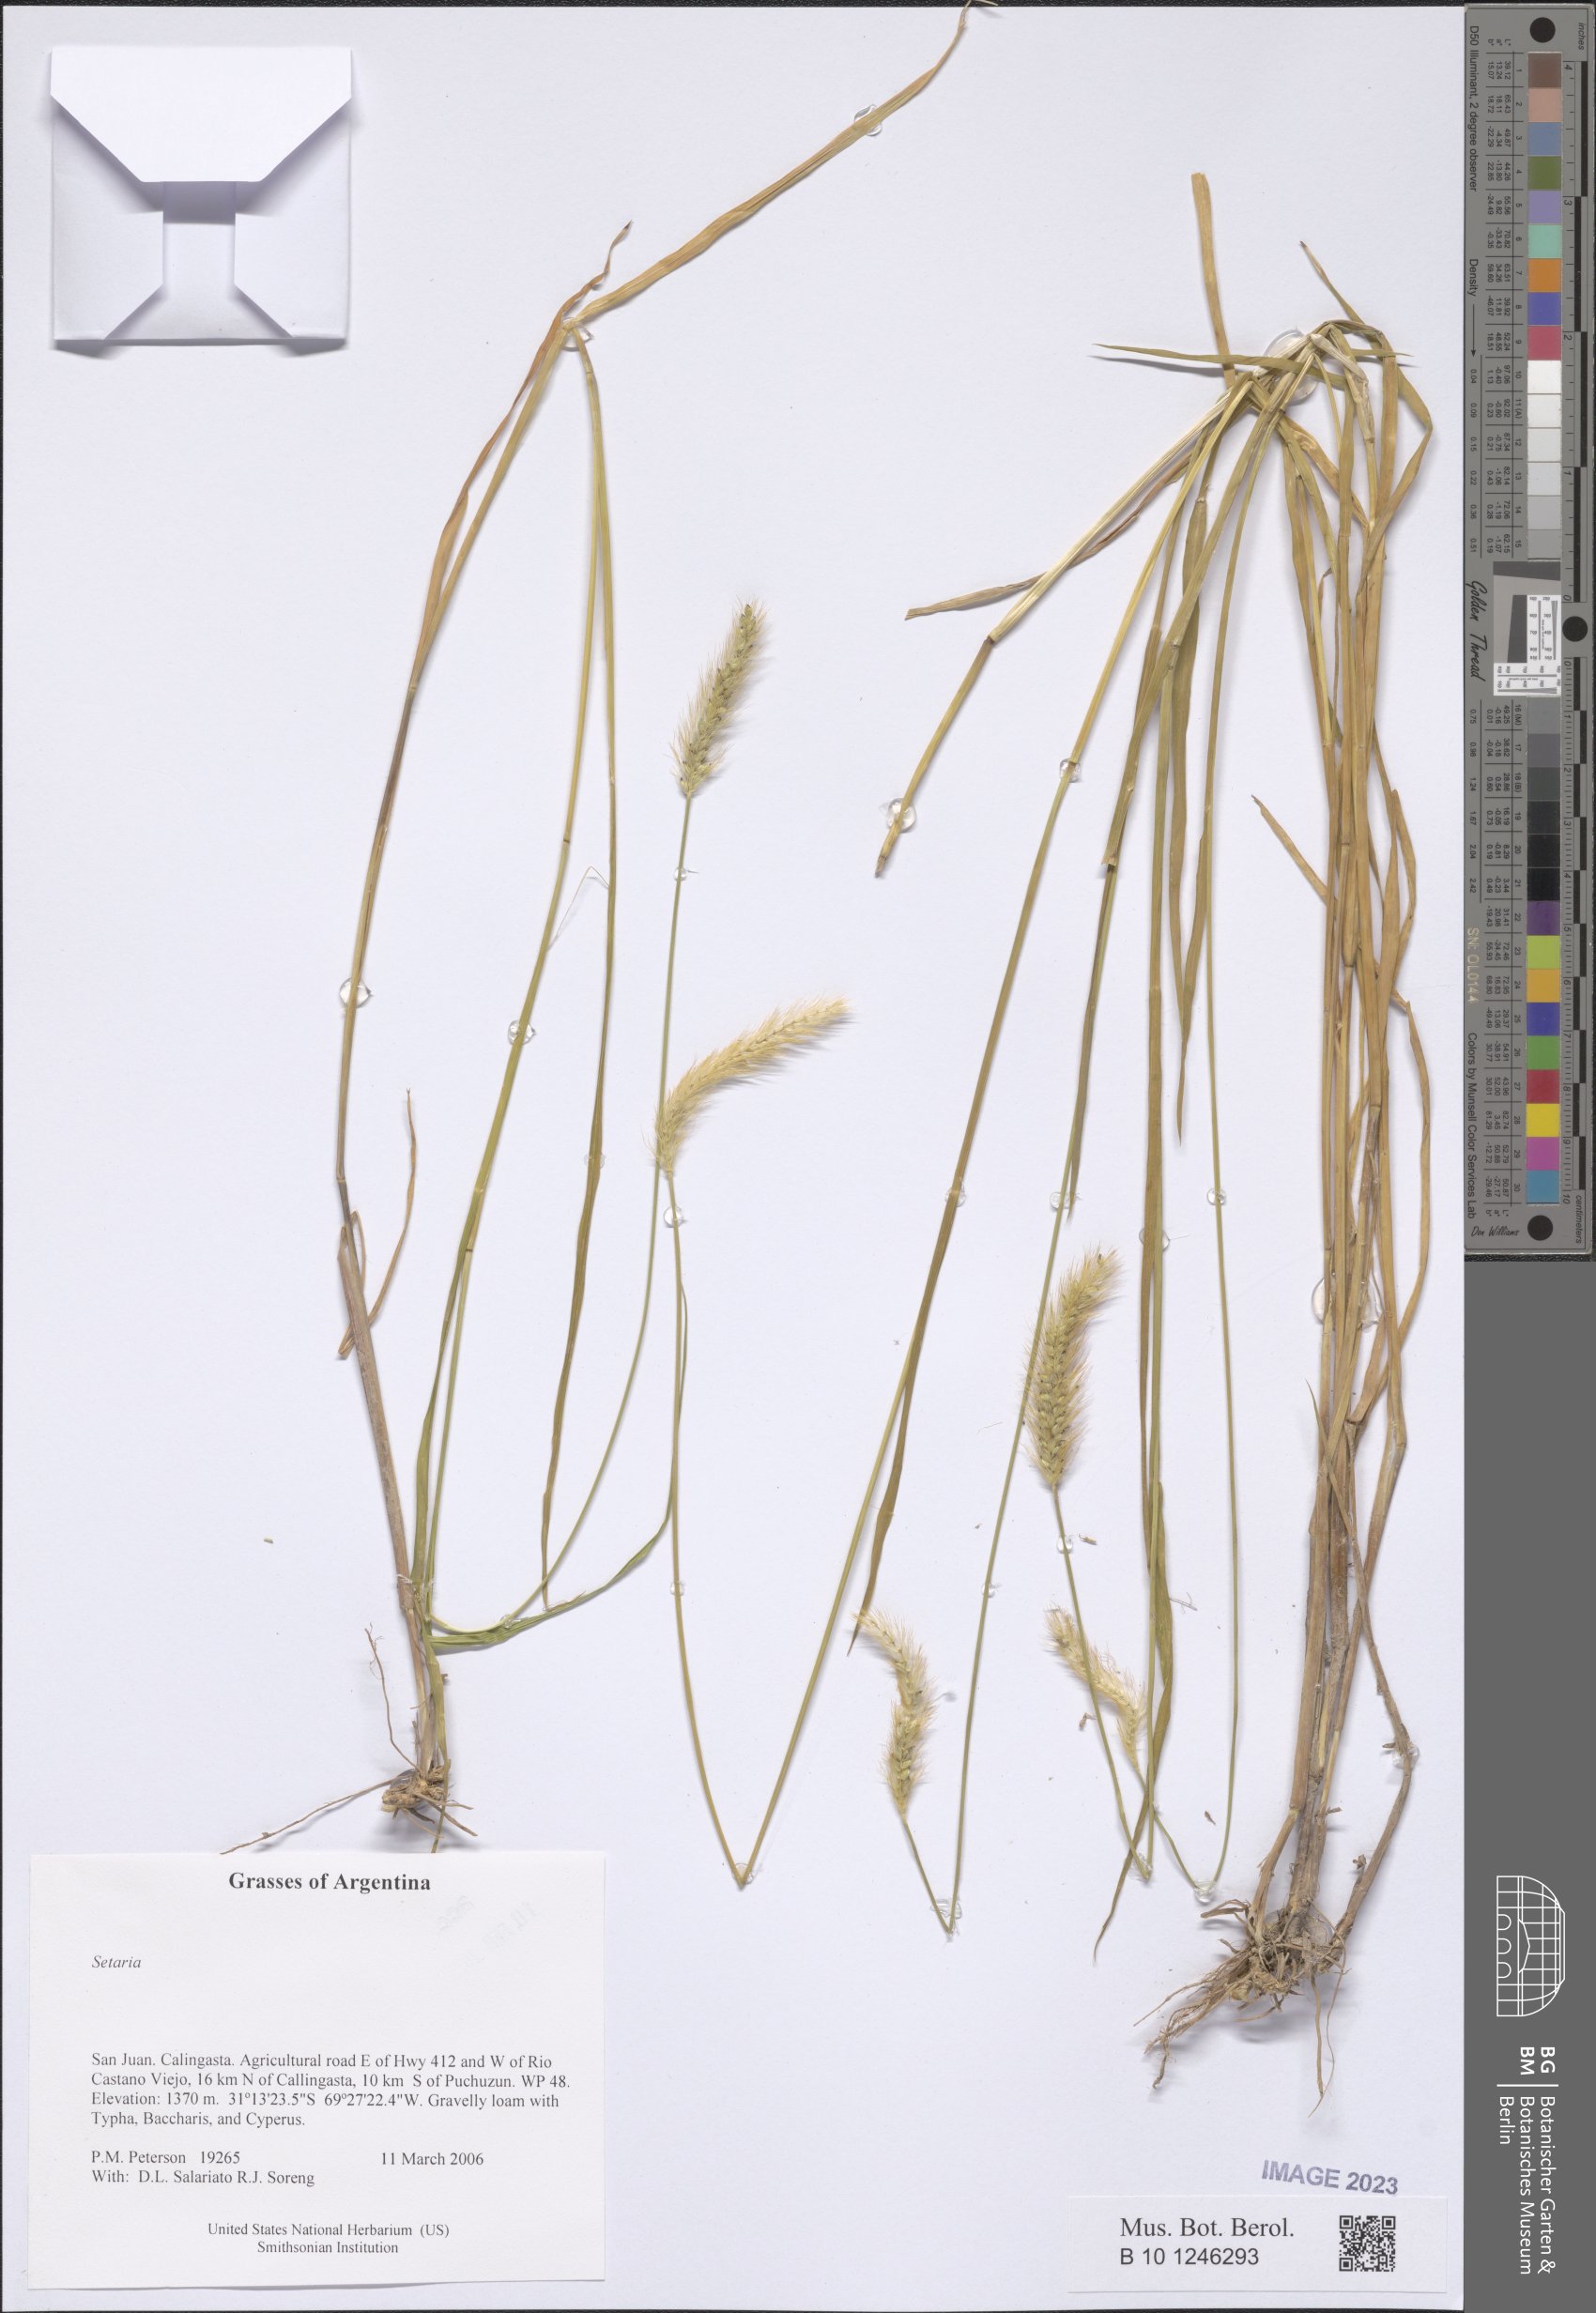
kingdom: Plantae
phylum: Tracheophyta
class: Liliopsida
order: Poales
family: Poaceae
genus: Setaria
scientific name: Setaria
